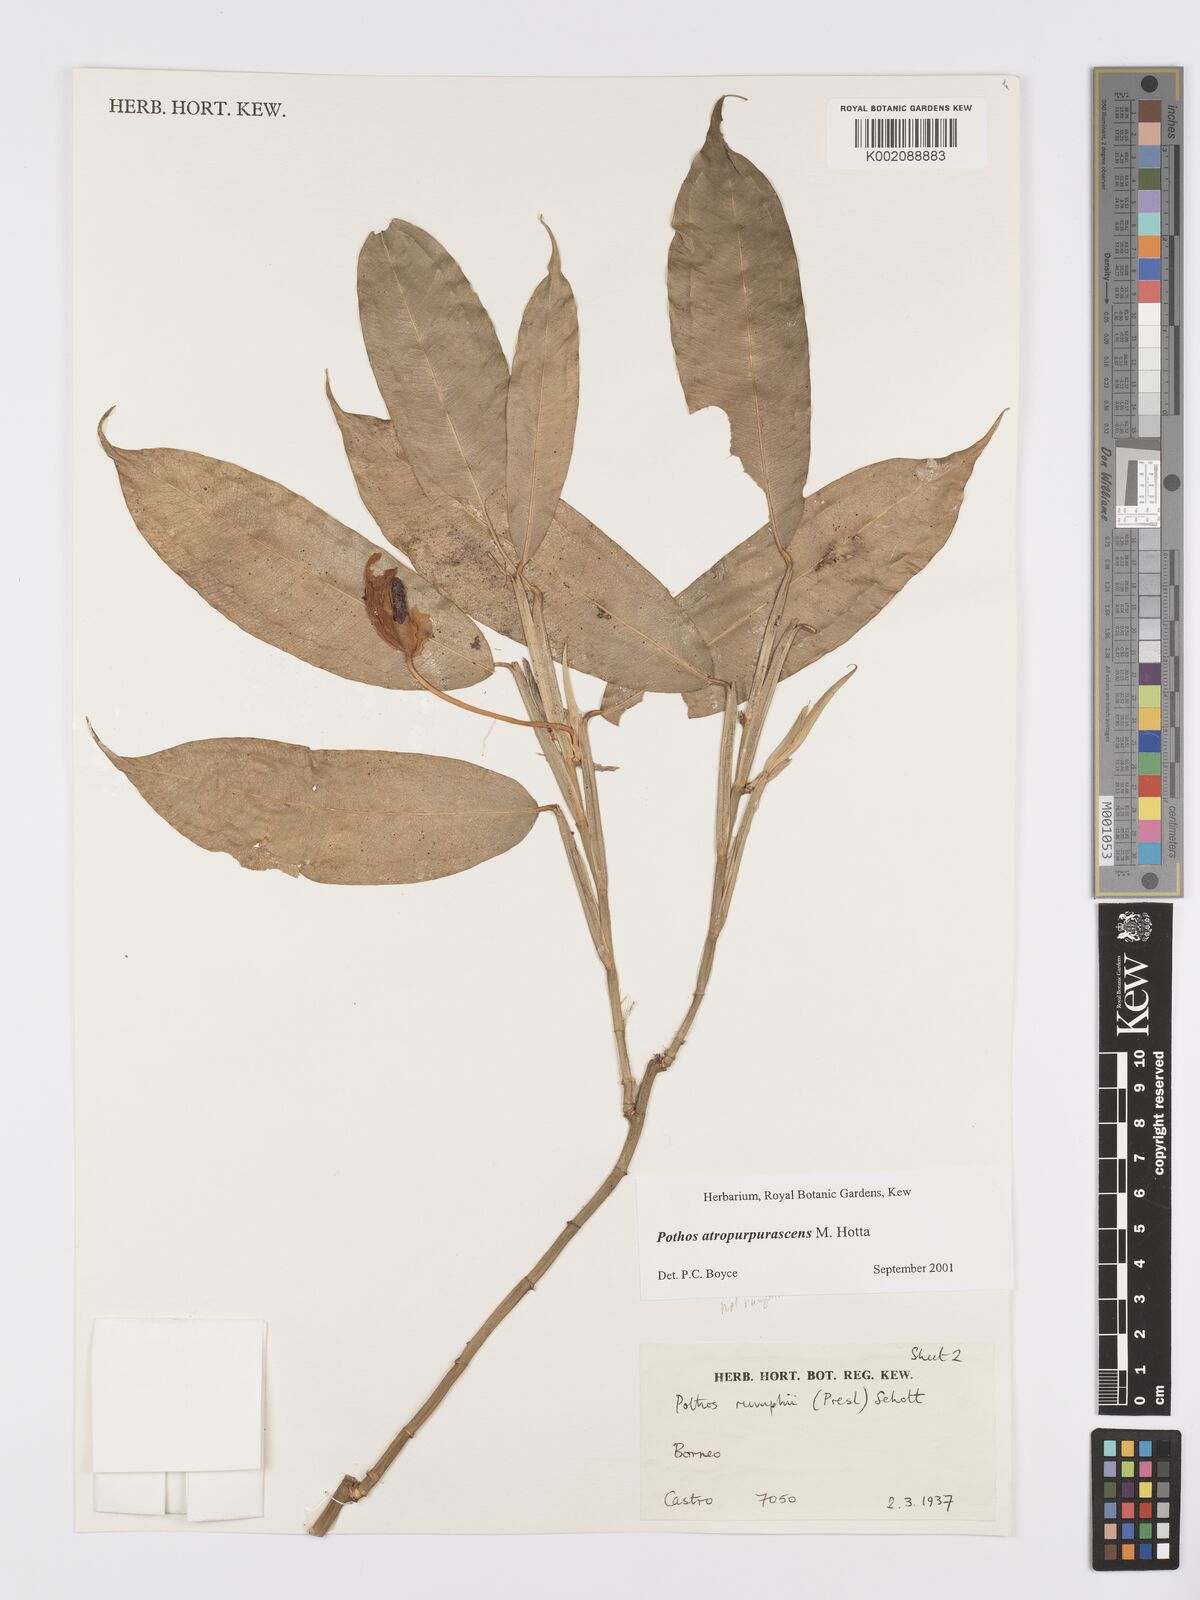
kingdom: Plantae
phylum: Tracheophyta
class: Liliopsida
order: Alismatales
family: Araceae
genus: Pothos
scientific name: Pothos atropurpurascens
